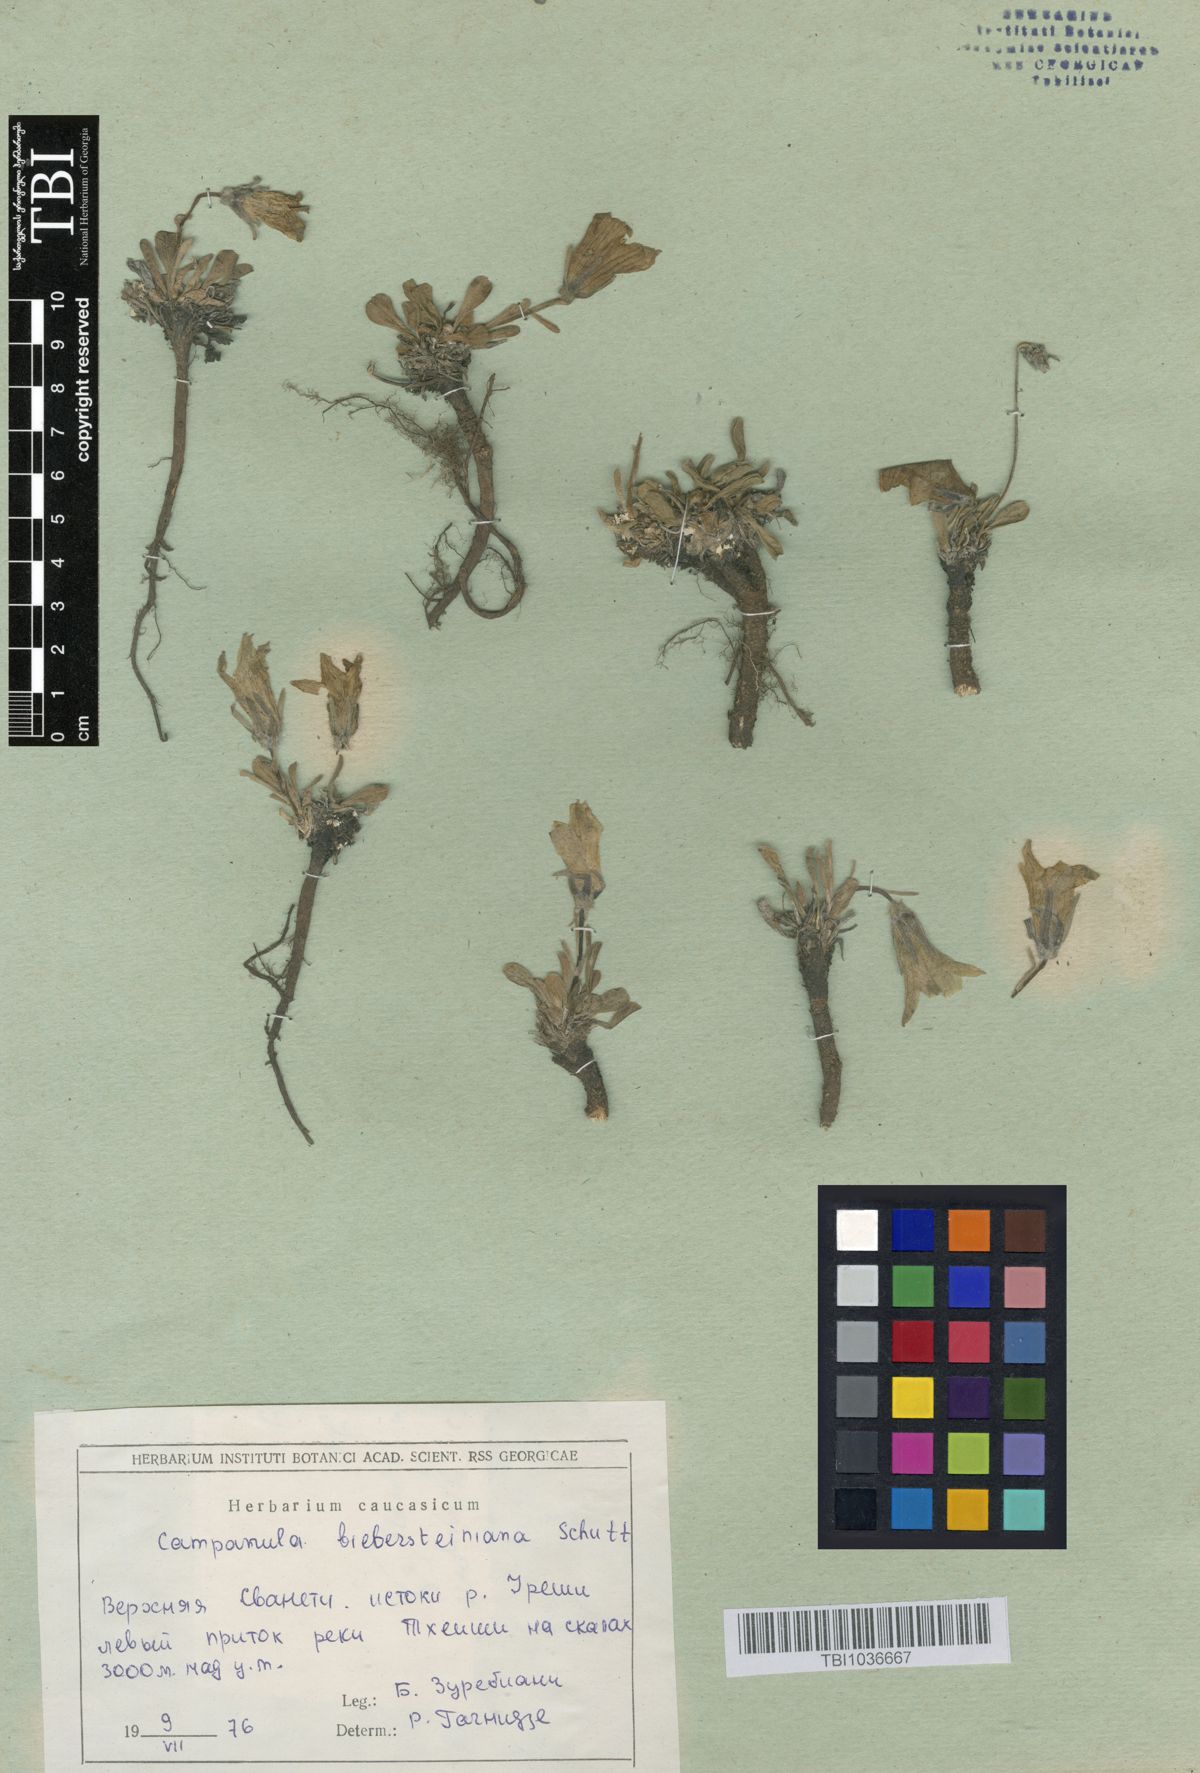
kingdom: Plantae
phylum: Tracheophyta
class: Magnoliopsida
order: Asterales
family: Campanulaceae
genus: Campanula
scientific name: Campanula tridentata
